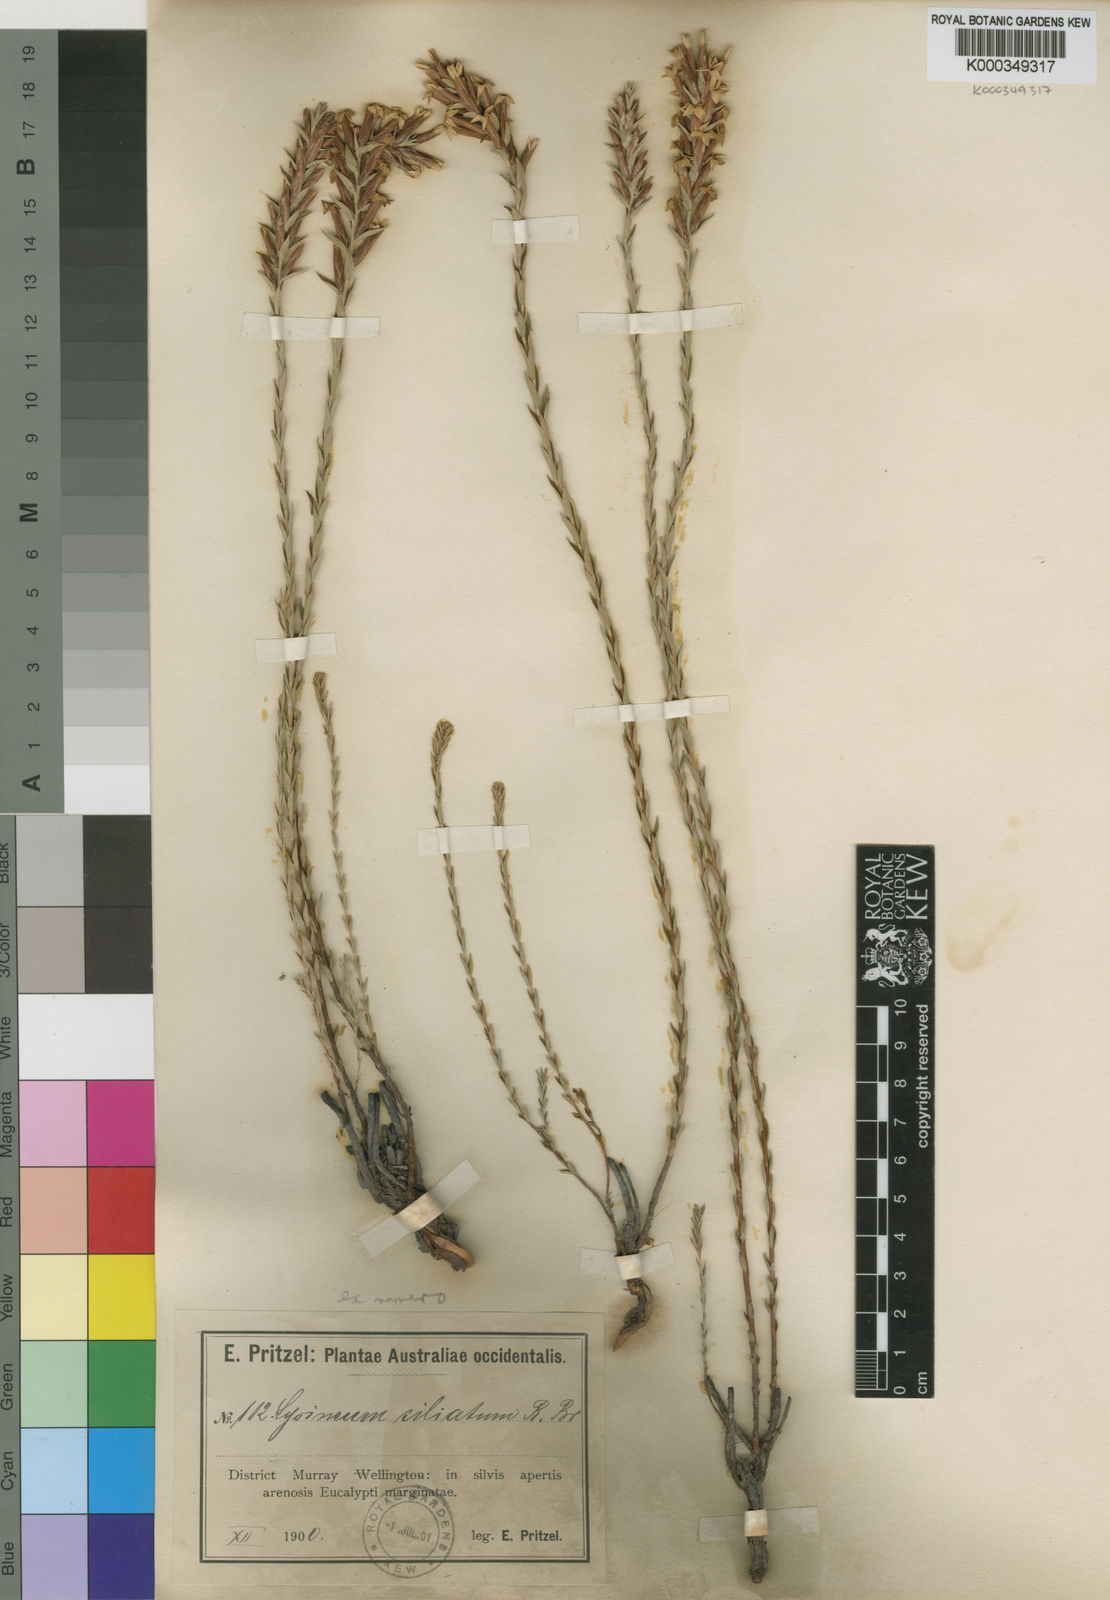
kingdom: Plantae
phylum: Tracheophyta
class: Magnoliopsida
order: Ericales
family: Ericaceae
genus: Lysinema
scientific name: Lysinema ciliatum
